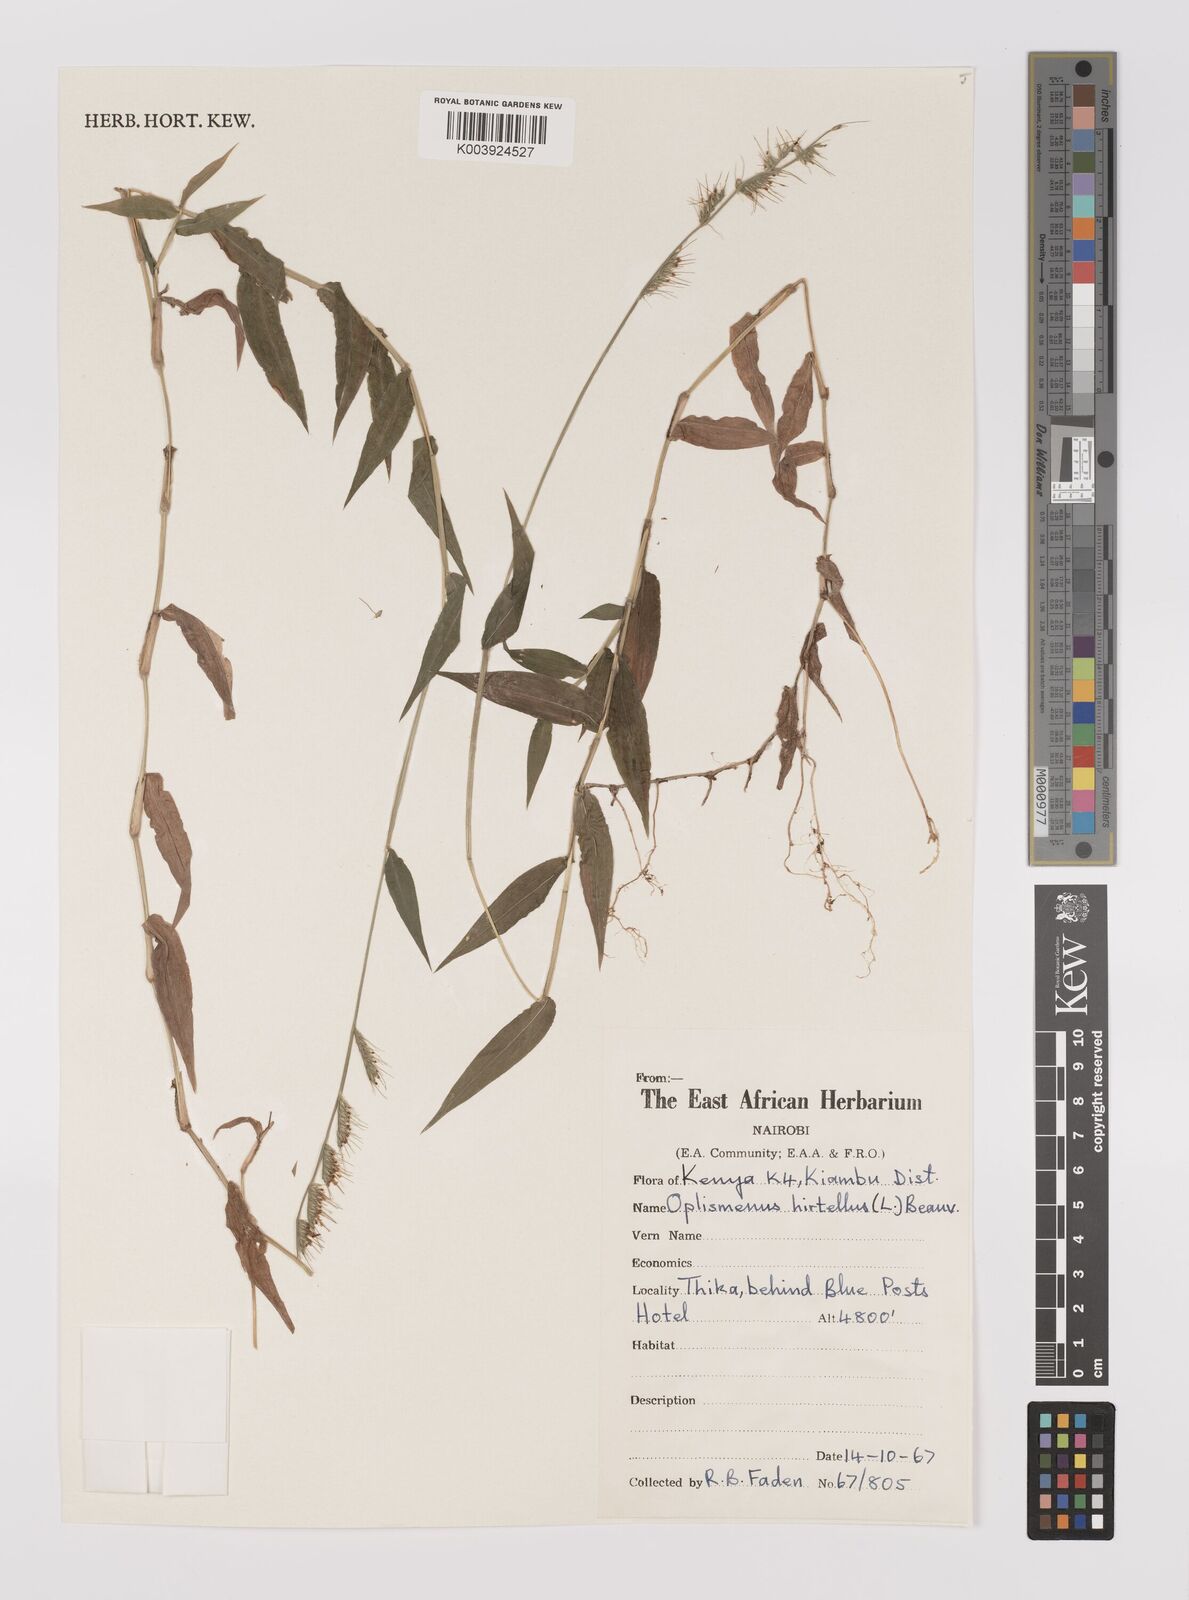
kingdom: Plantae
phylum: Tracheophyta
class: Liliopsida
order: Poales
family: Poaceae
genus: Oplismenus
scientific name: Oplismenus hirtellus
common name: Basketgrass
